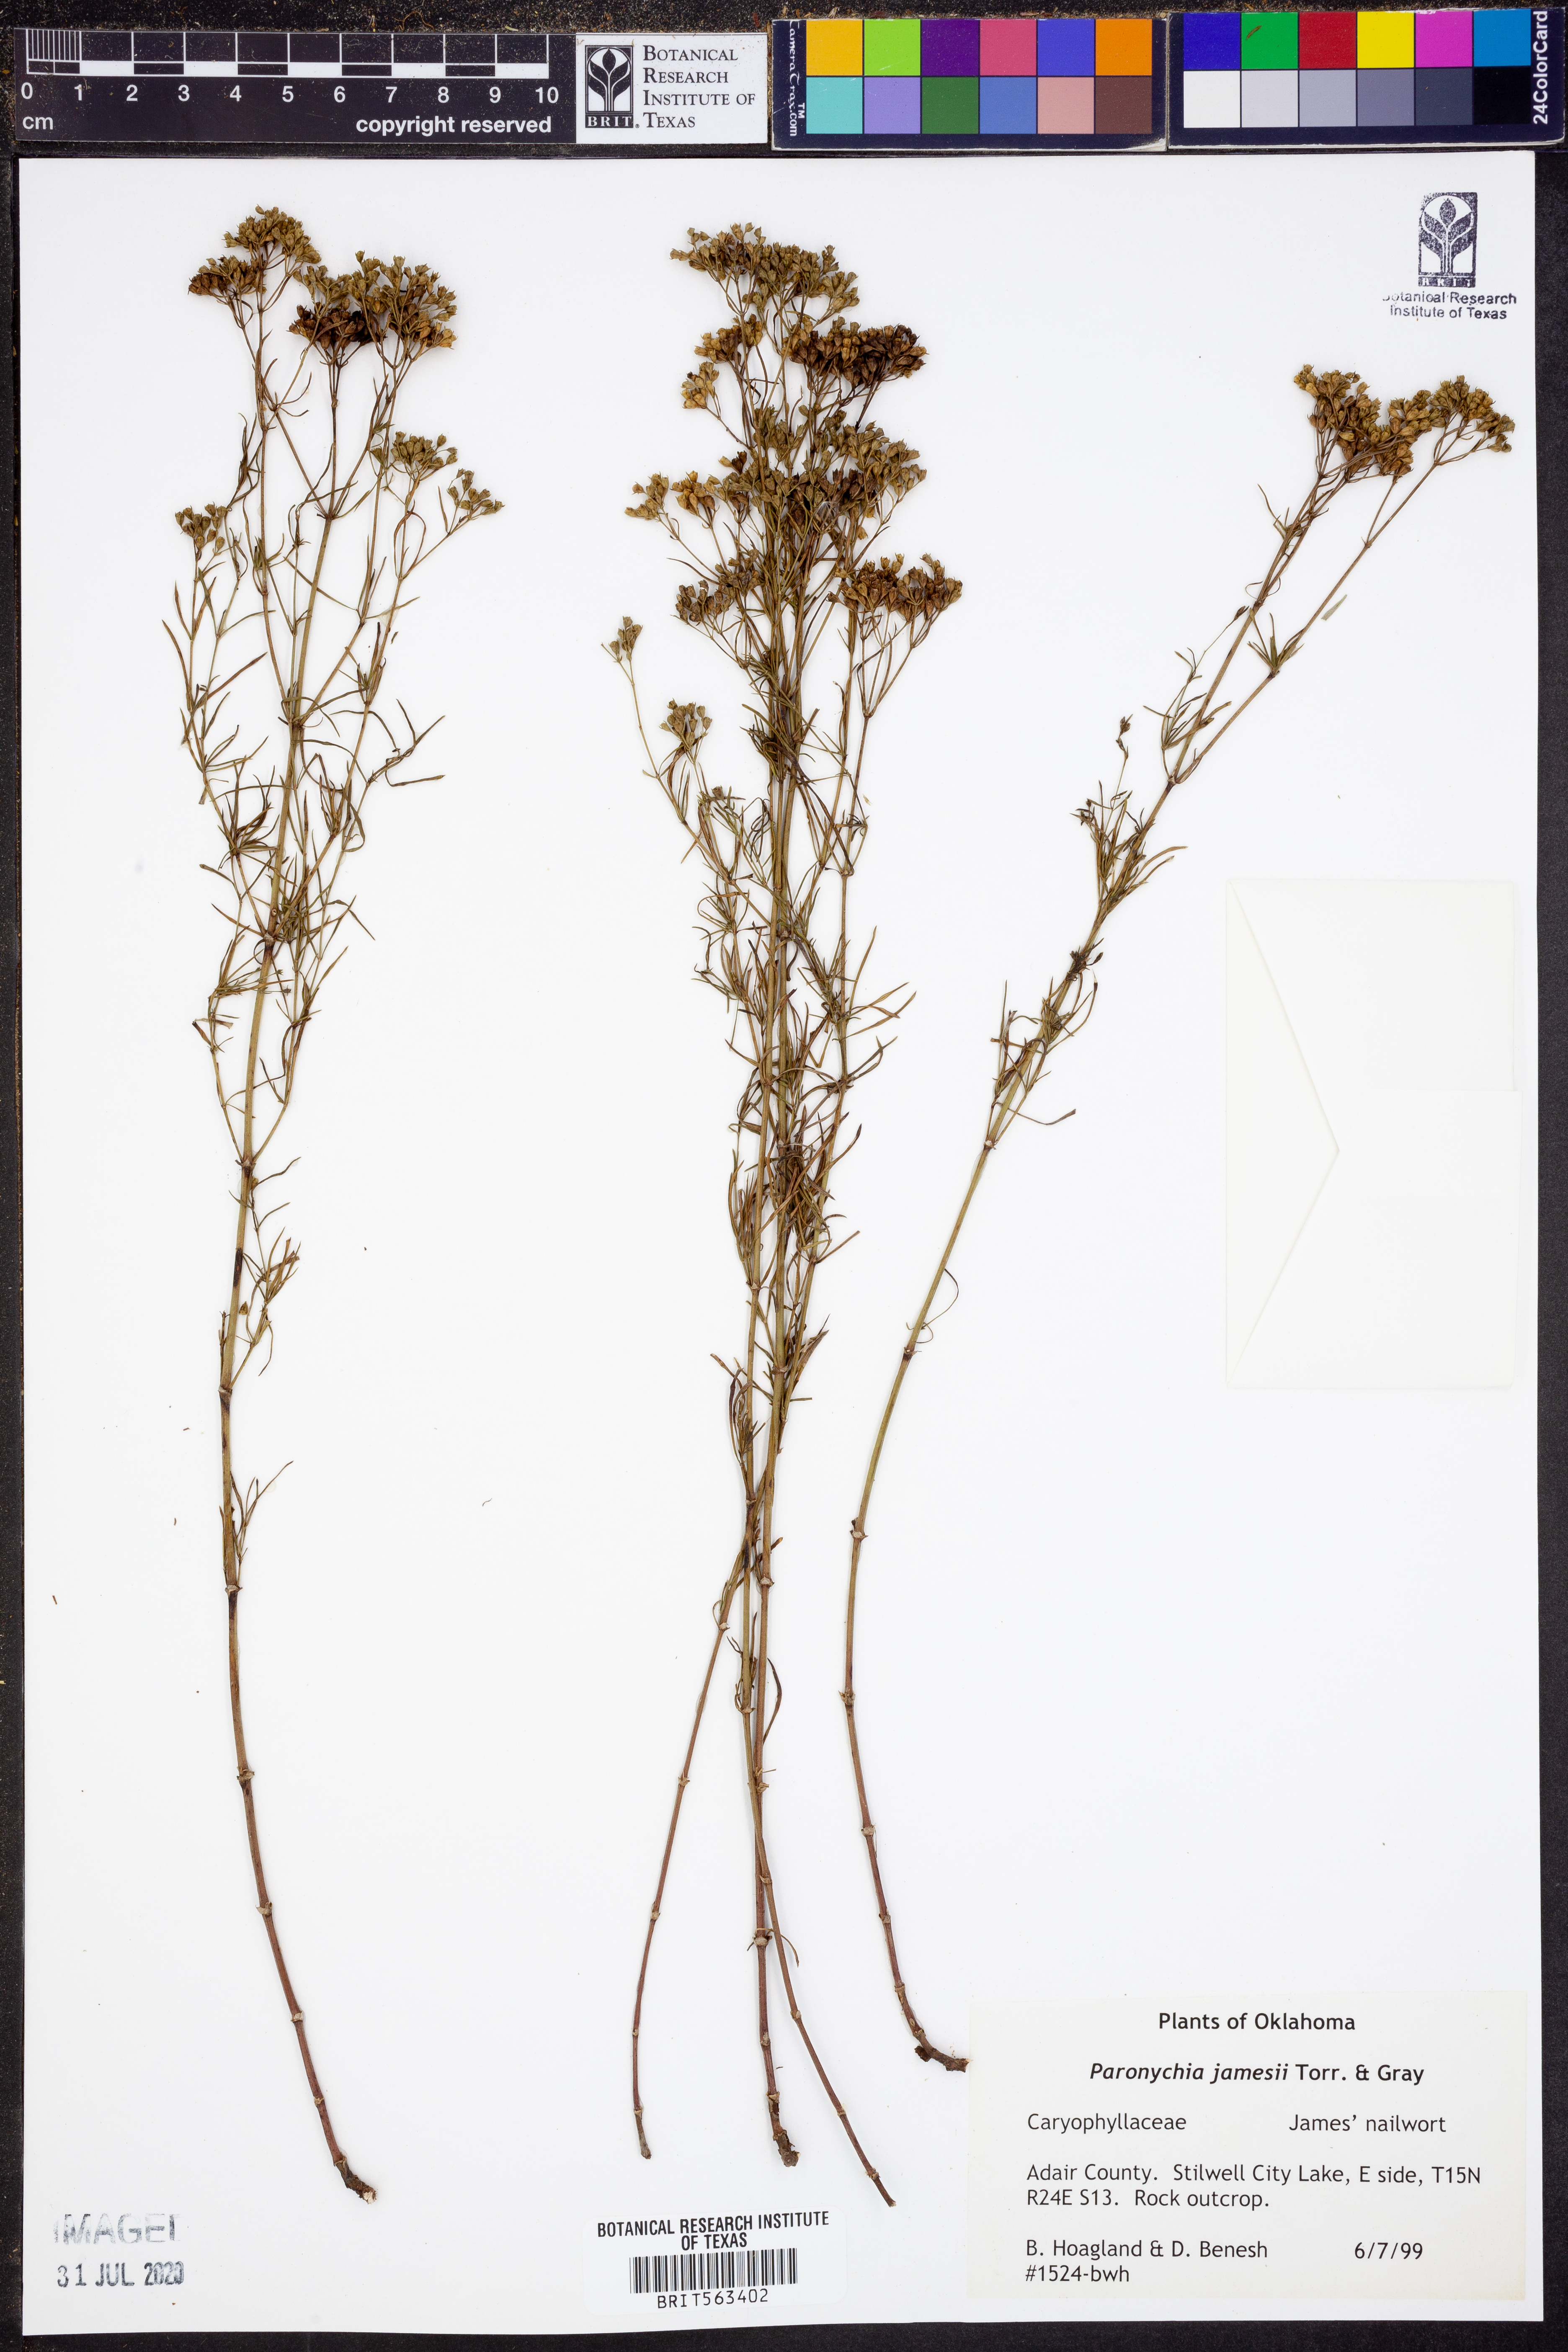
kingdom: Plantae
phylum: Tracheophyta
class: Magnoliopsida
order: Caryophyllales
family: Caryophyllaceae
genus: Paronychia
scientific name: Paronychia jamesii
